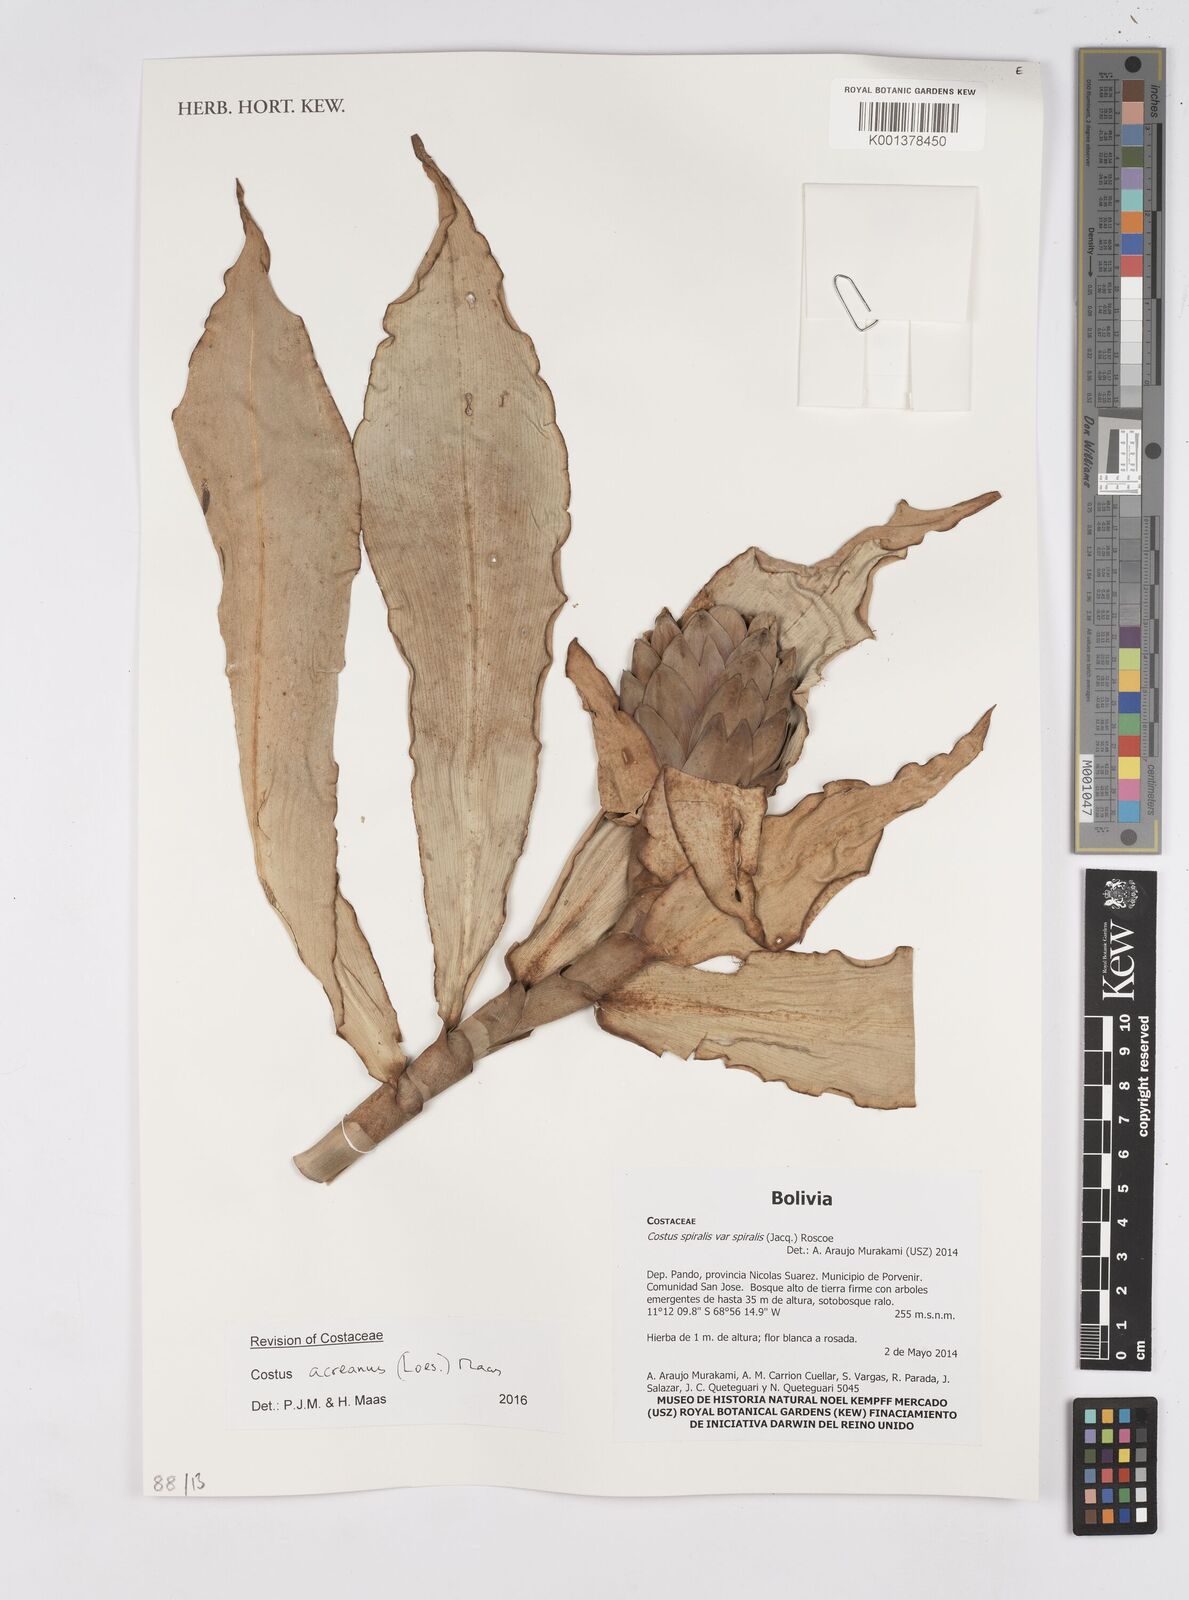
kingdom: Plantae
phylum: Tracheophyta
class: Liliopsida
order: Zingiberales
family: Costaceae
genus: Costus
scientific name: Costus acreanus
